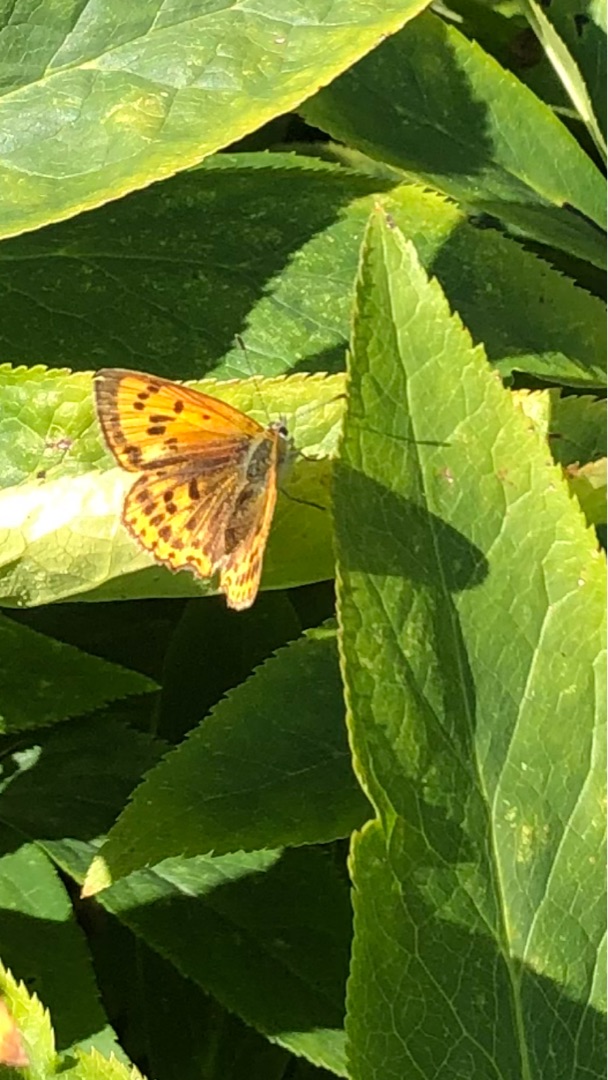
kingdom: Animalia
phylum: Arthropoda
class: Insecta
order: Lepidoptera
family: Lycaenidae
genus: Lycaena
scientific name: Lycaena virgaureae
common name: Dukatsommerfugl
